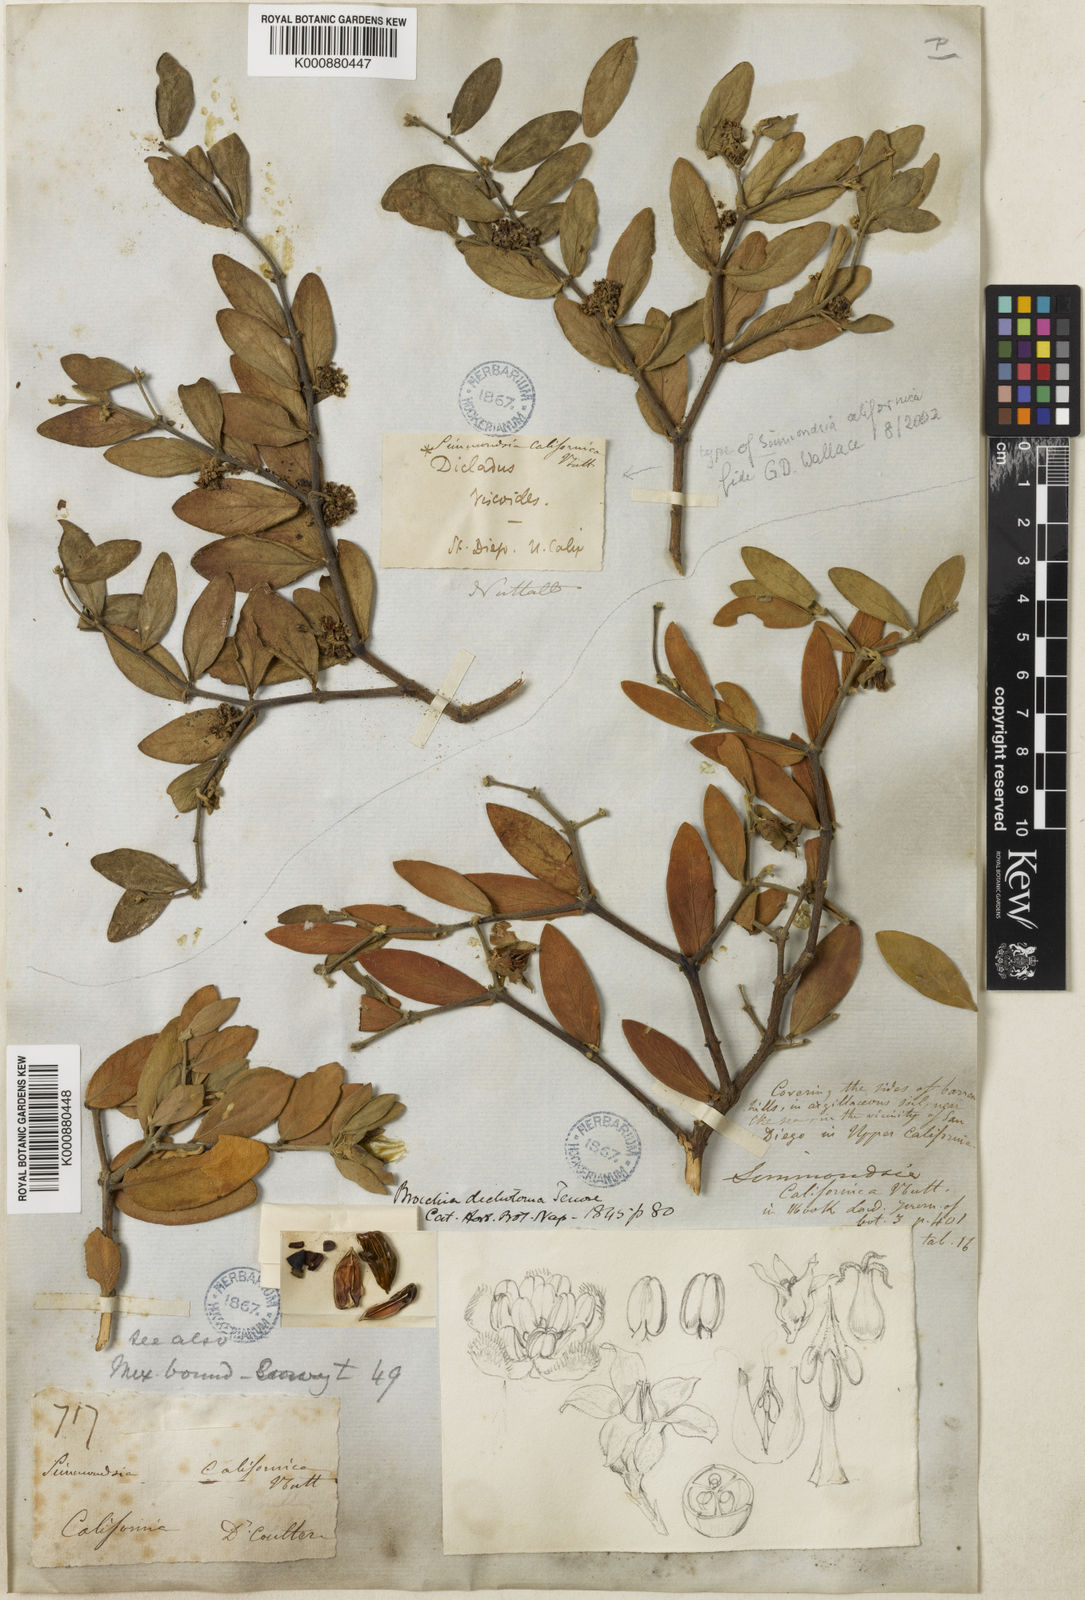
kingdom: Plantae
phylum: Tracheophyta
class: Magnoliopsida
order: Caryophyllales
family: Simmondsiaceae
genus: Simmondsia
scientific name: Simmondsia chinensis
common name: Jojoba
